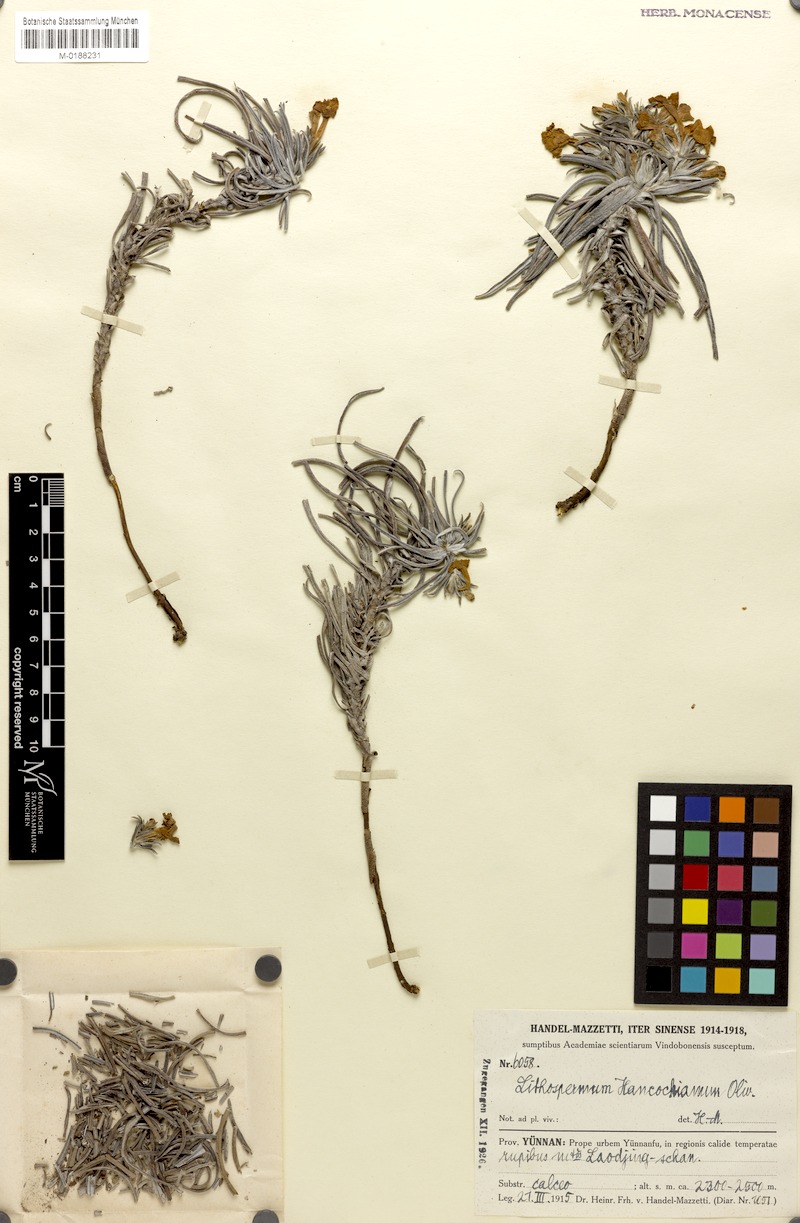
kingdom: Plantae
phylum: Tracheophyta
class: Magnoliopsida
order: Boraginales
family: Boraginaceae
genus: Lithospermum
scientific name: Lithospermum hancockianum
